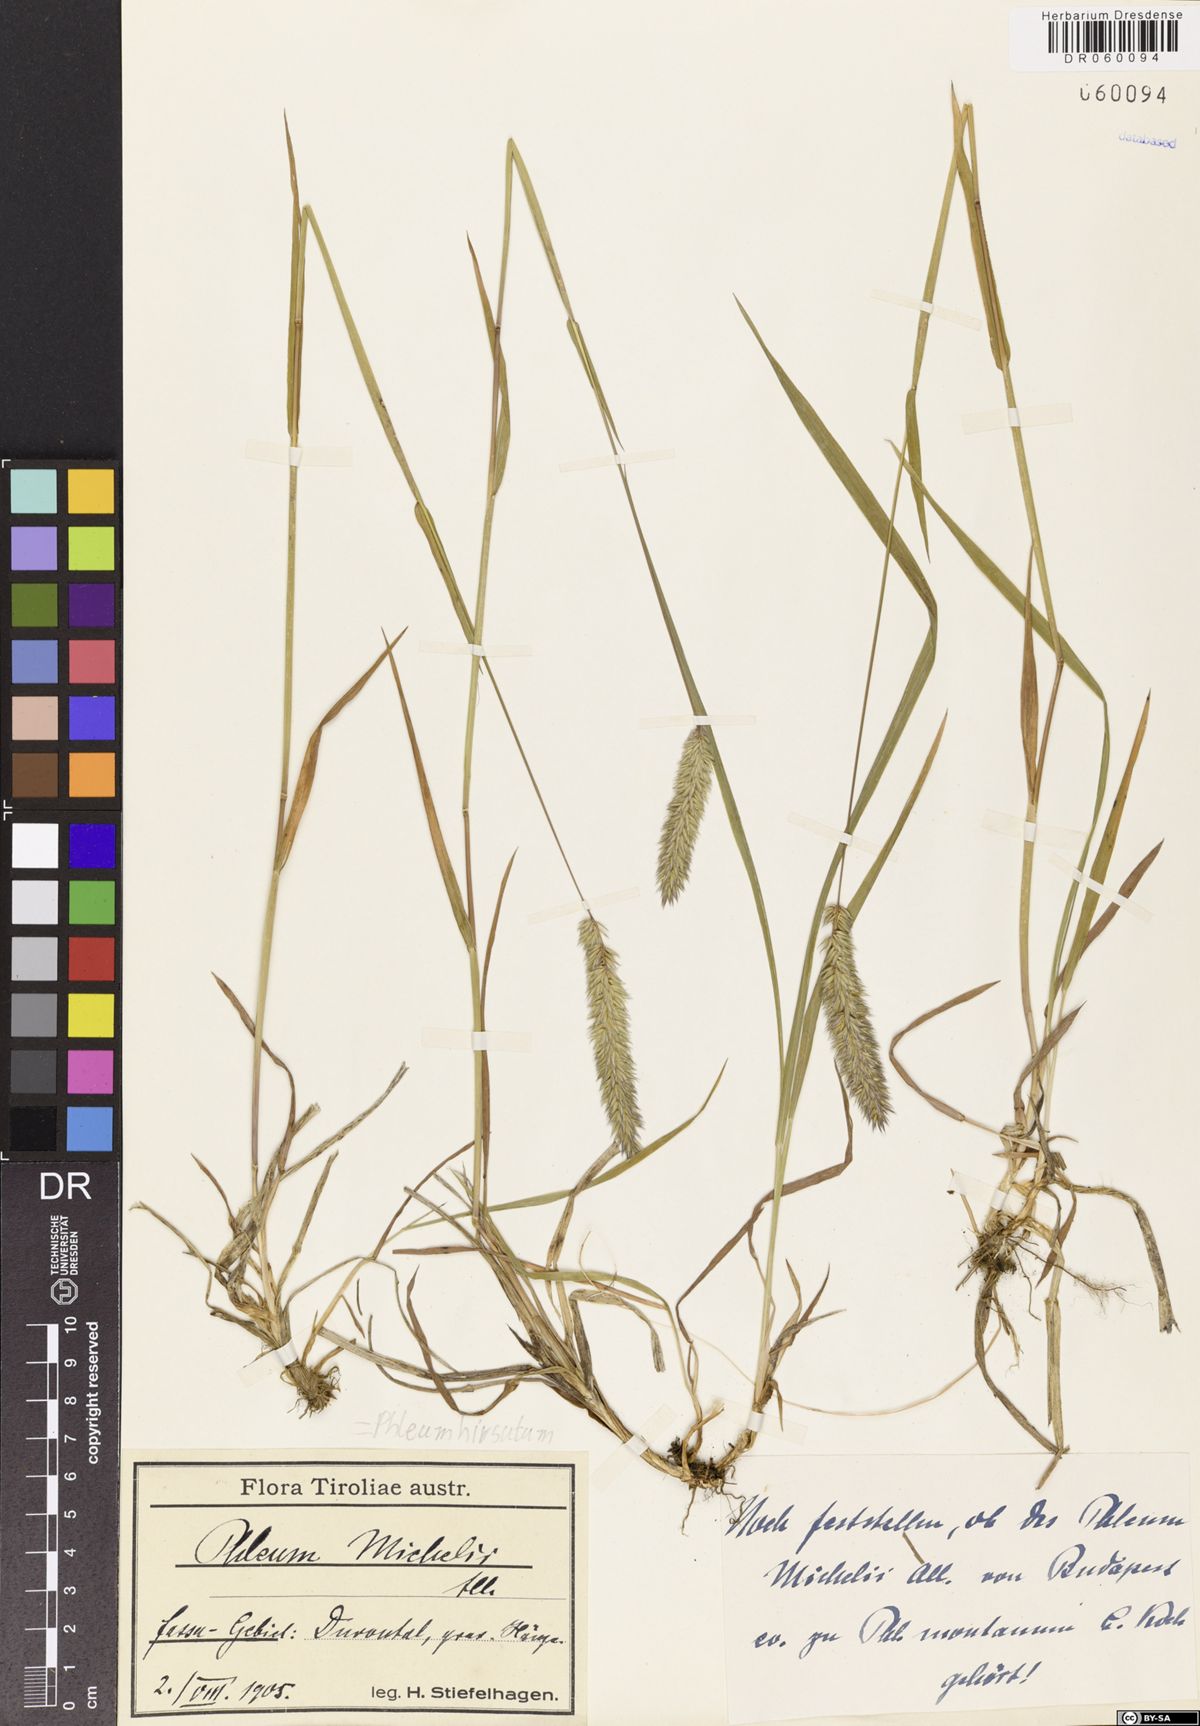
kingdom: Plantae
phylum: Tracheophyta
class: Liliopsida
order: Poales
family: Poaceae
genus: Phleum
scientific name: Phleum hirsutum
